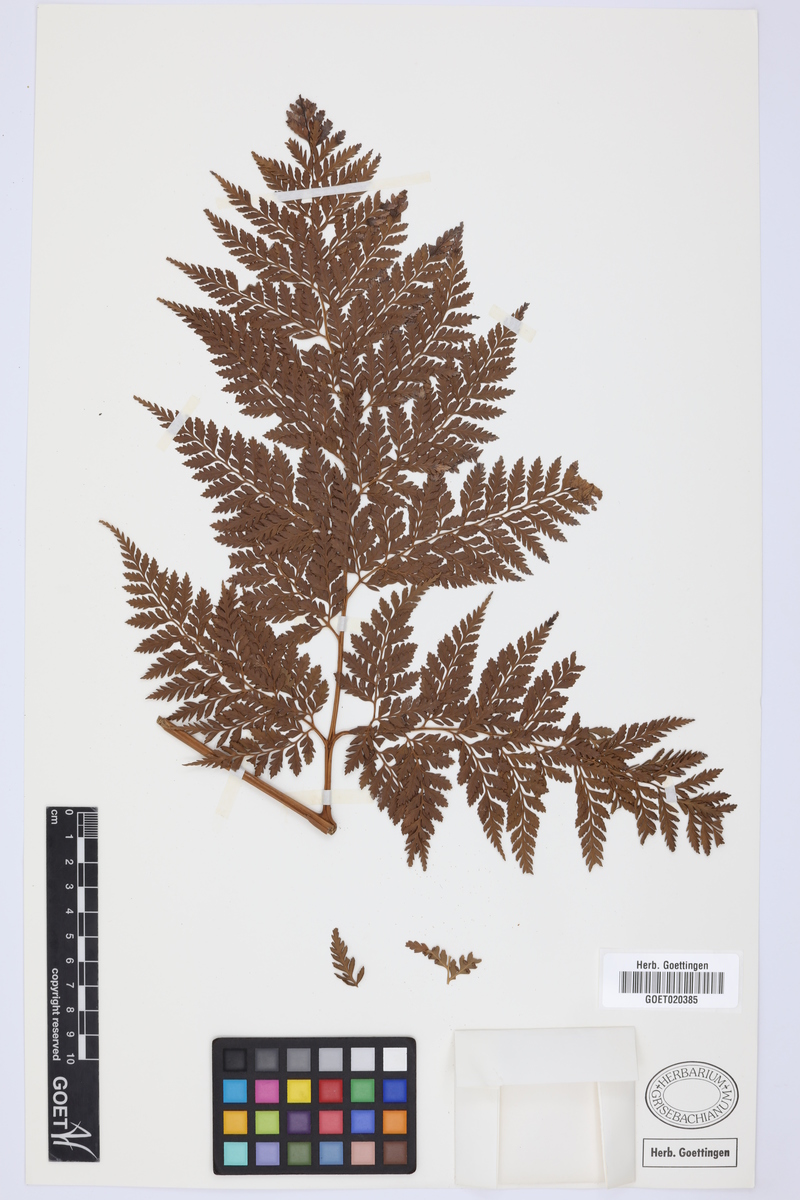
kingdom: Plantae
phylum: Tracheophyta
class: Polypodiopsida
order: Cyatheales
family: Culcitaceae
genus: Culcita
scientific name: Culcita macrocarpa
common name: Woolly tree fern
